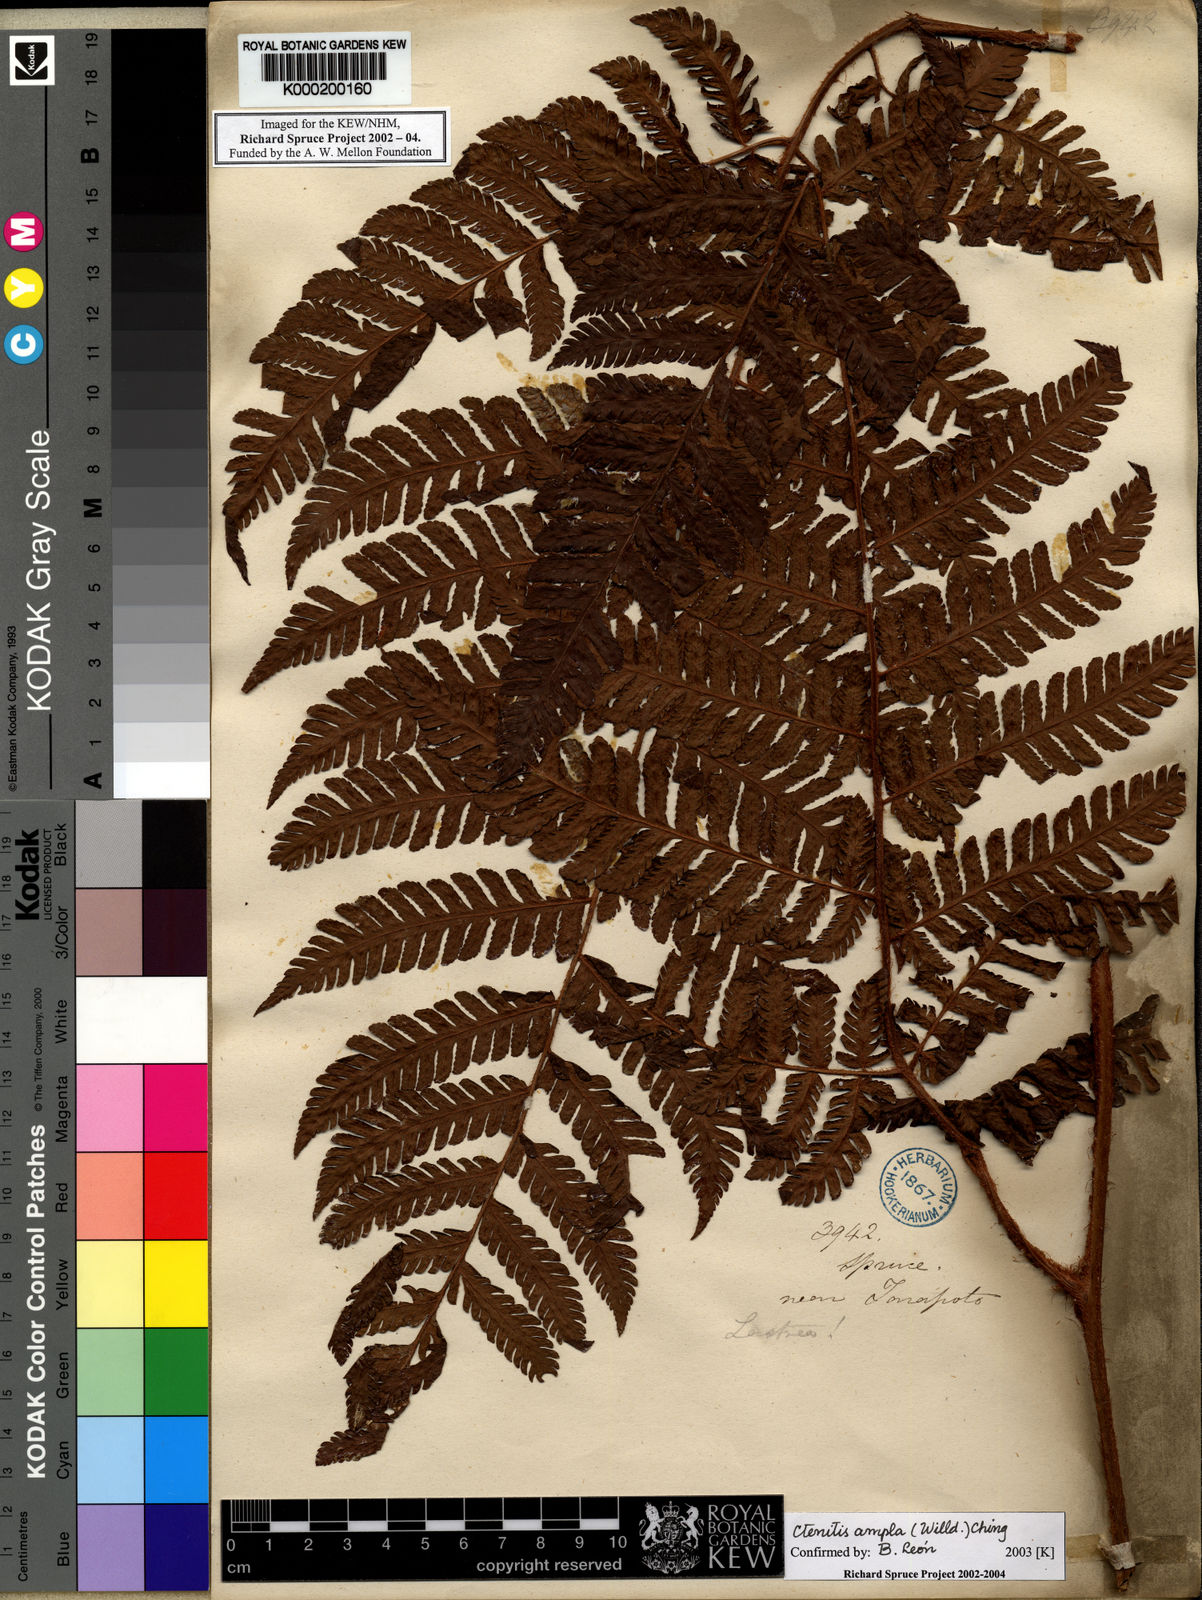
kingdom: Plantae
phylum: Tracheophyta
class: Polypodiopsida
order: Polypodiales
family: Dryopteridaceae
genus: Ctenitis
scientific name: Ctenitis sloanei
